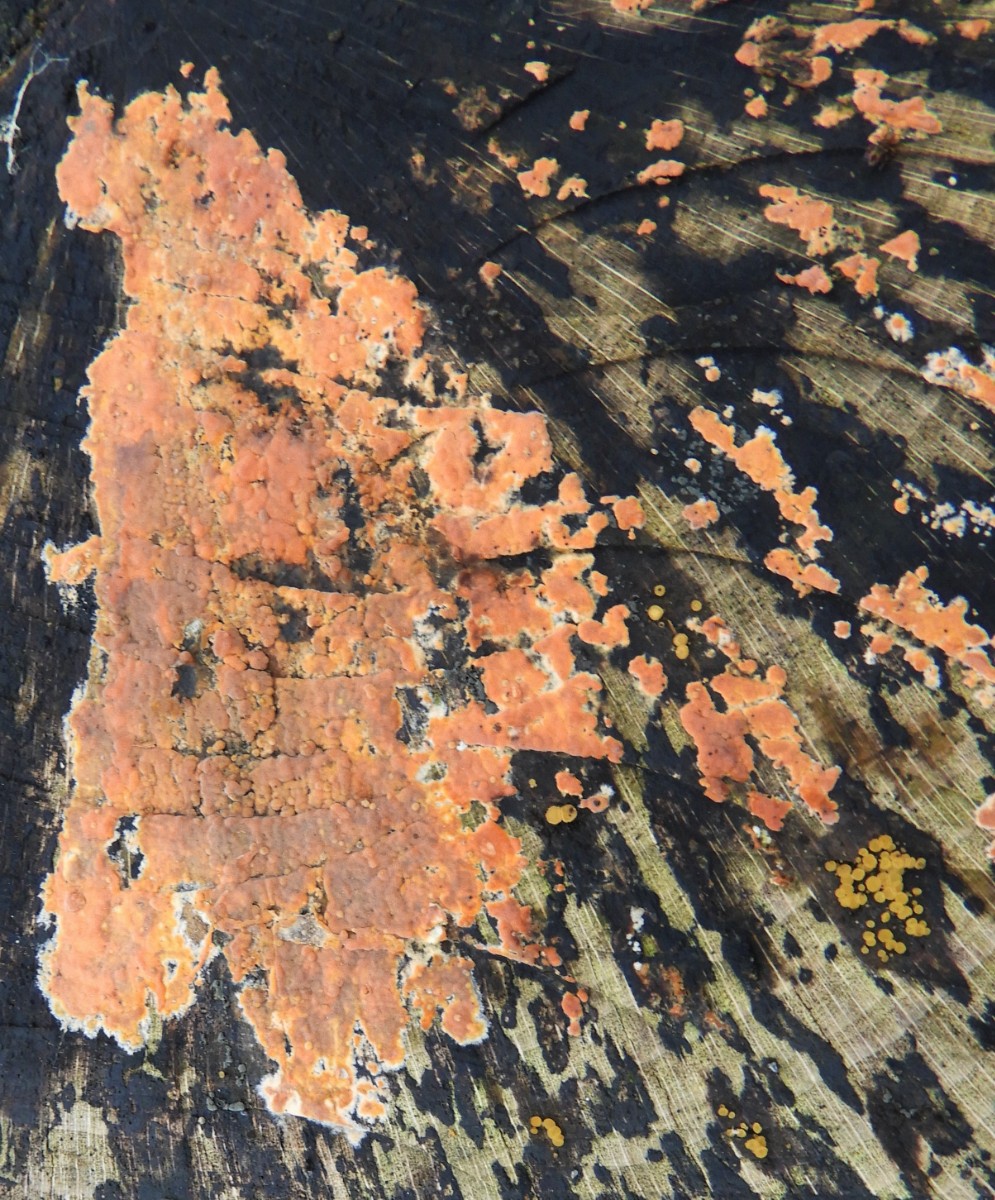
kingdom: Fungi
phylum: Basidiomycota
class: Agaricomycetes
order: Russulales
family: Peniophoraceae
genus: Peniophora
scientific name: Peniophora incarnata
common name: laksefarvet voksskind
